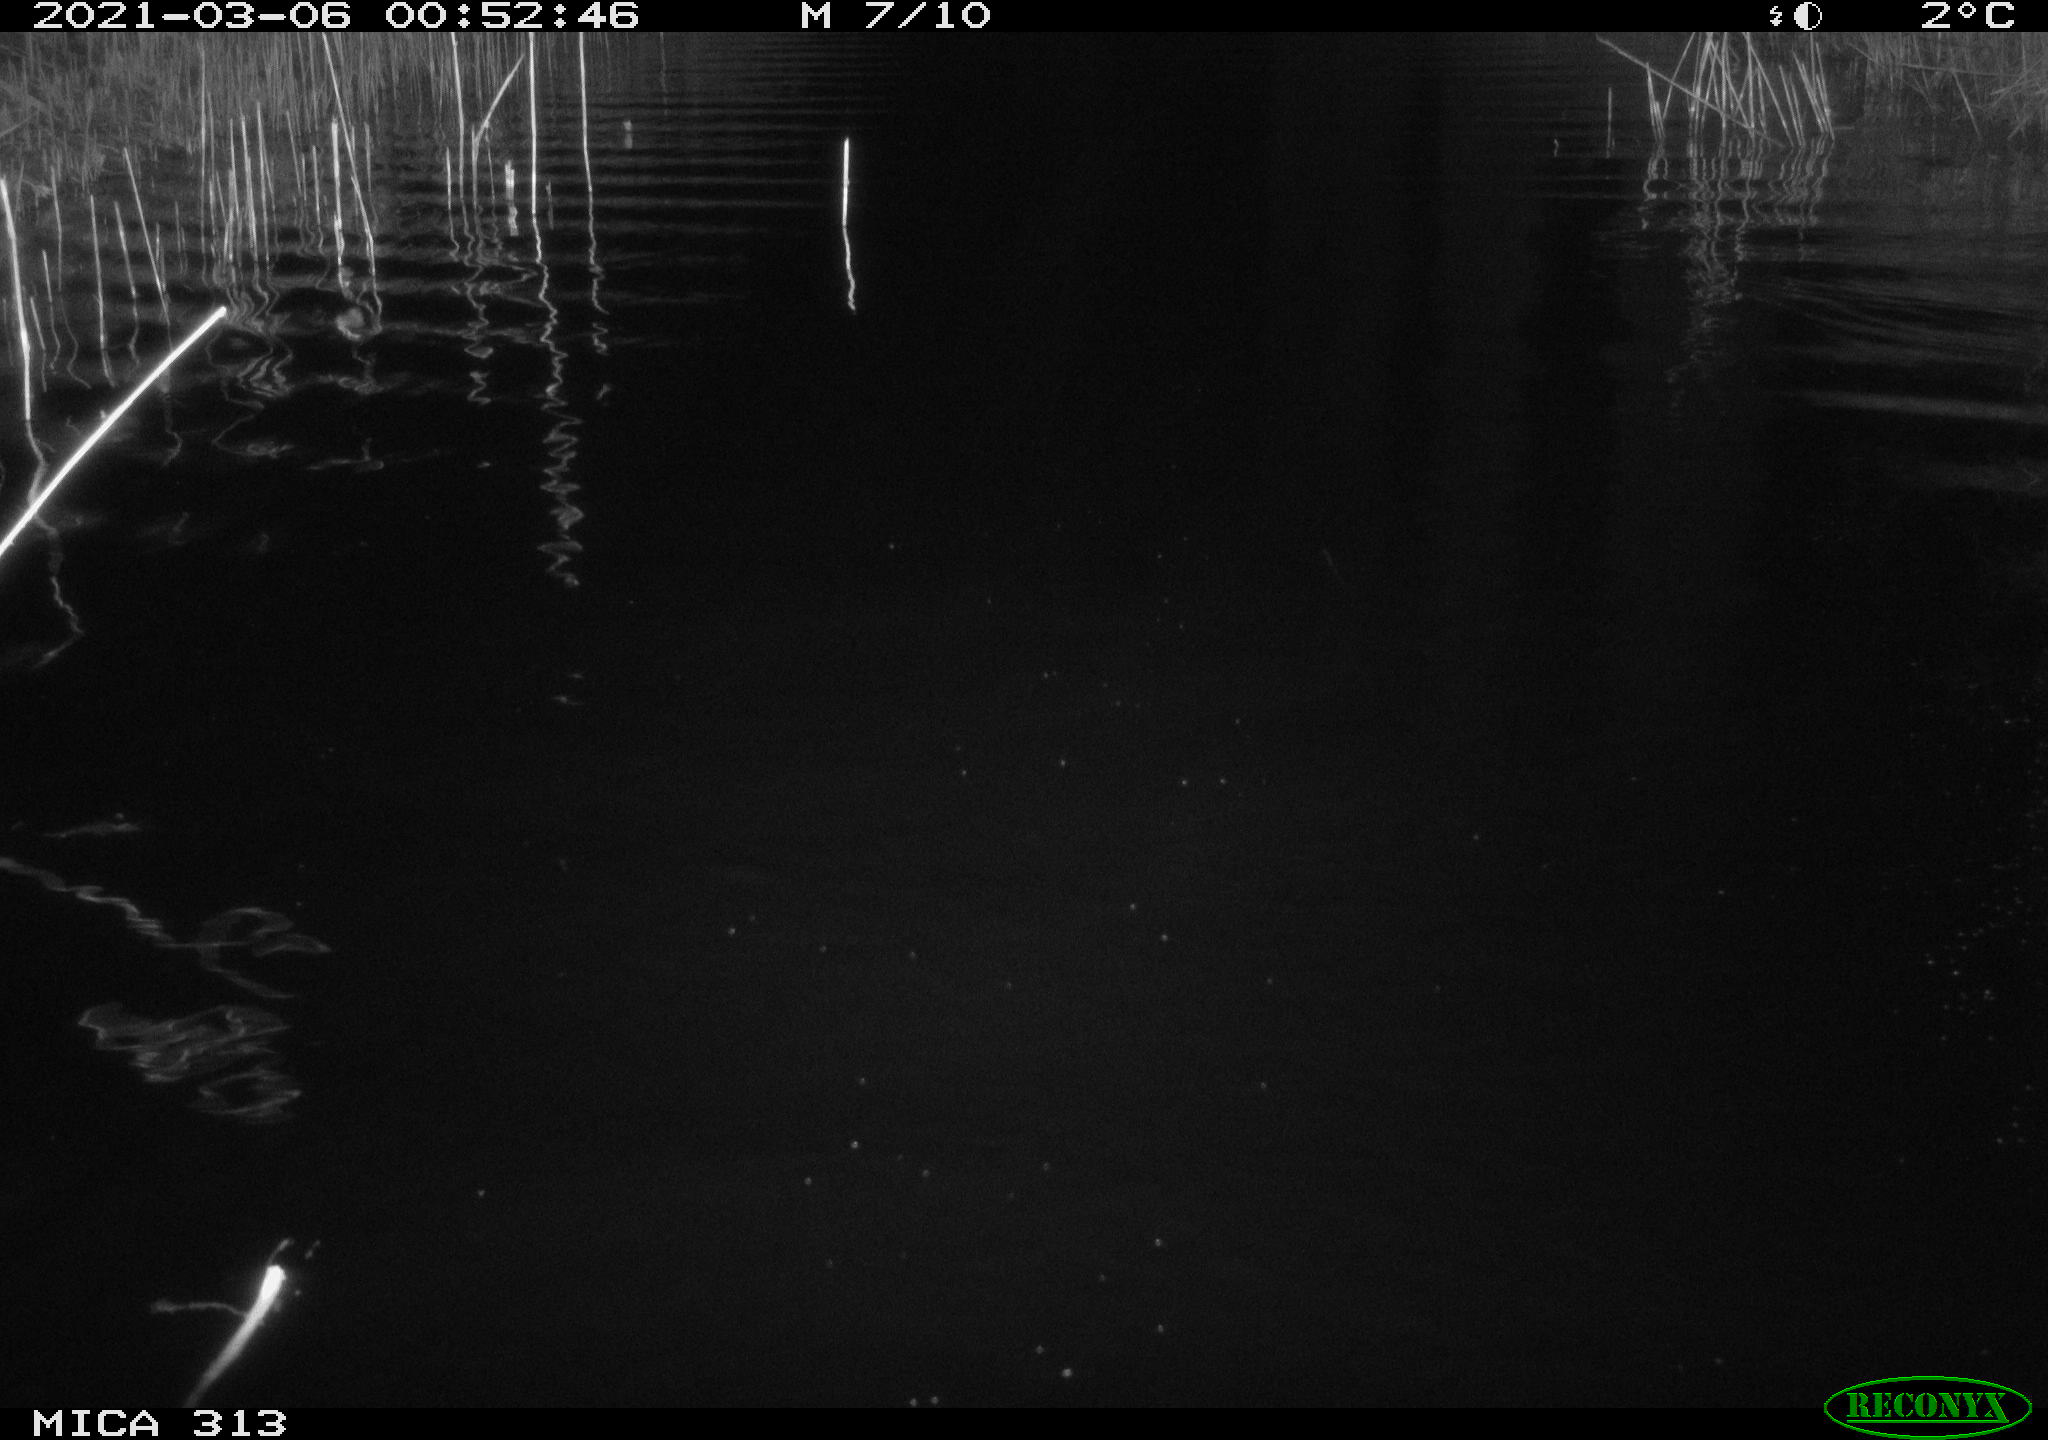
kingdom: Animalia
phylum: Chordata
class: Mammalia
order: Rodentia
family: Cricetidae
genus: Ondatra
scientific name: Ondatra zibethicus
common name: Muskrat
